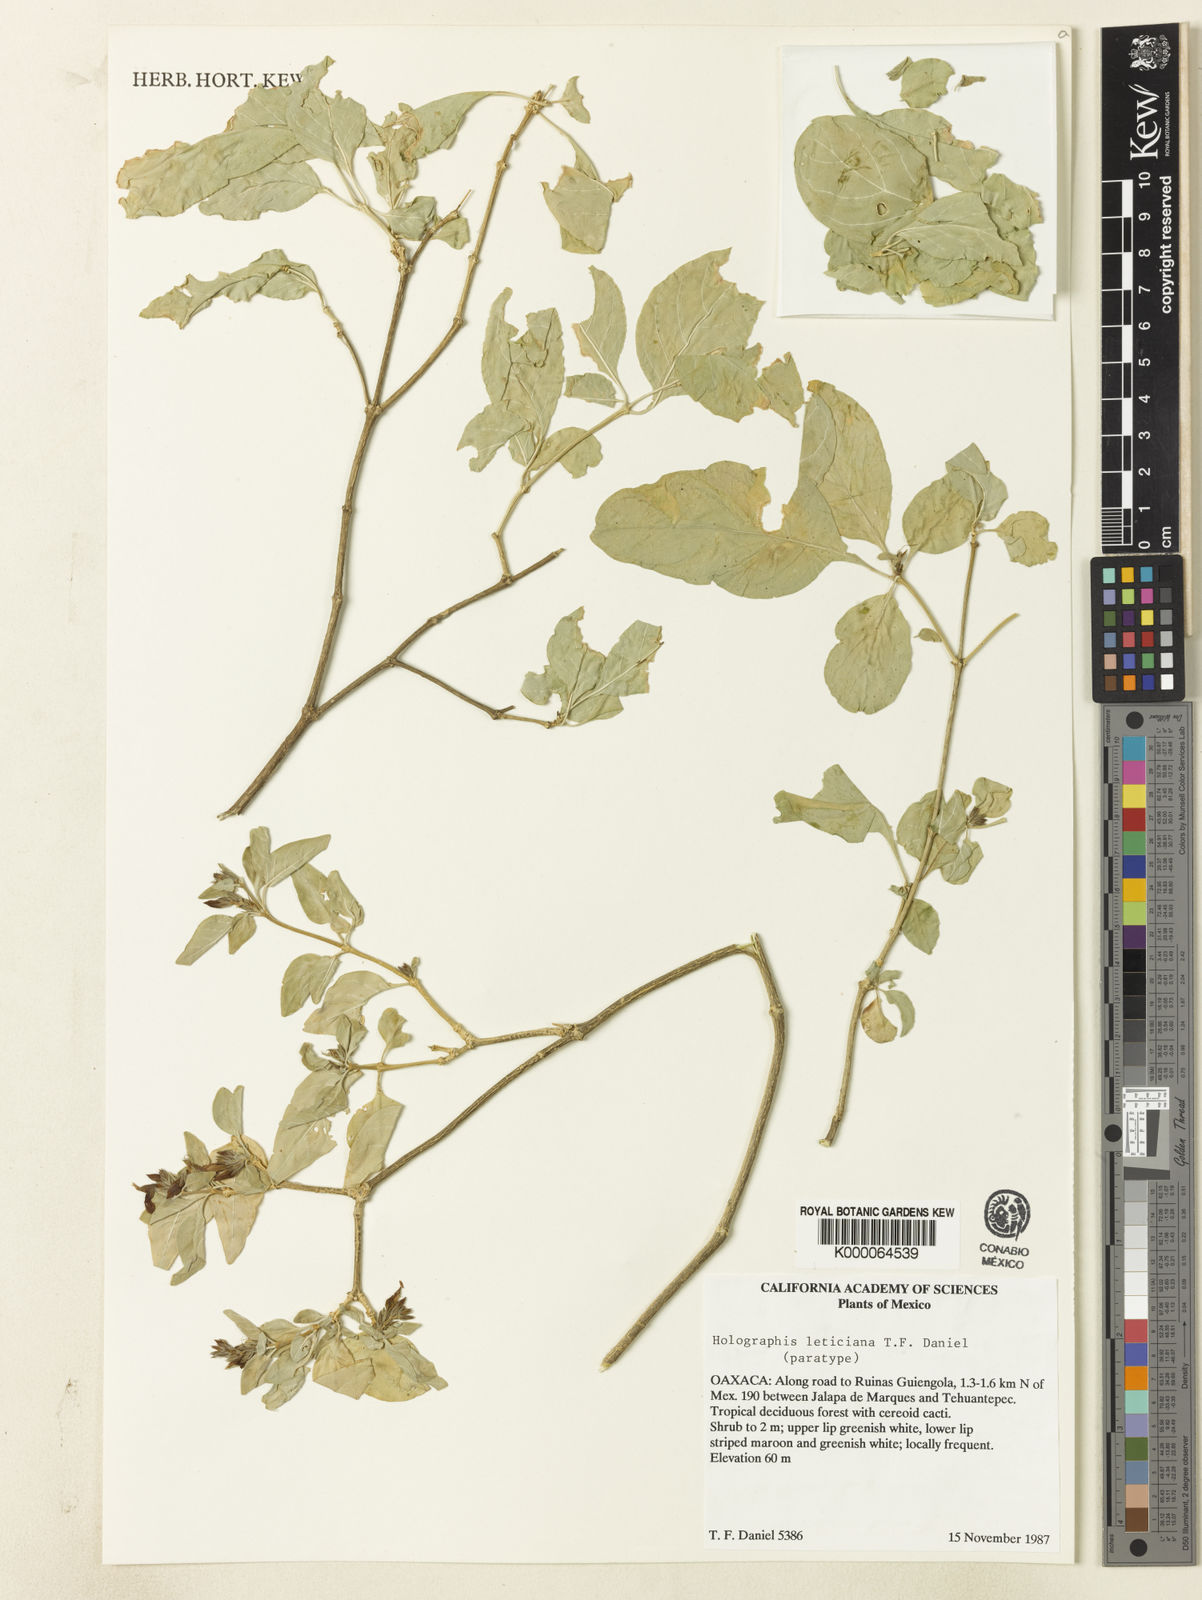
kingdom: Plantae
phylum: Tracheophyta
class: Magnoliopsida
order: Lamiales
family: Acanthaceae
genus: Holographis
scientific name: Holographis leticiana
